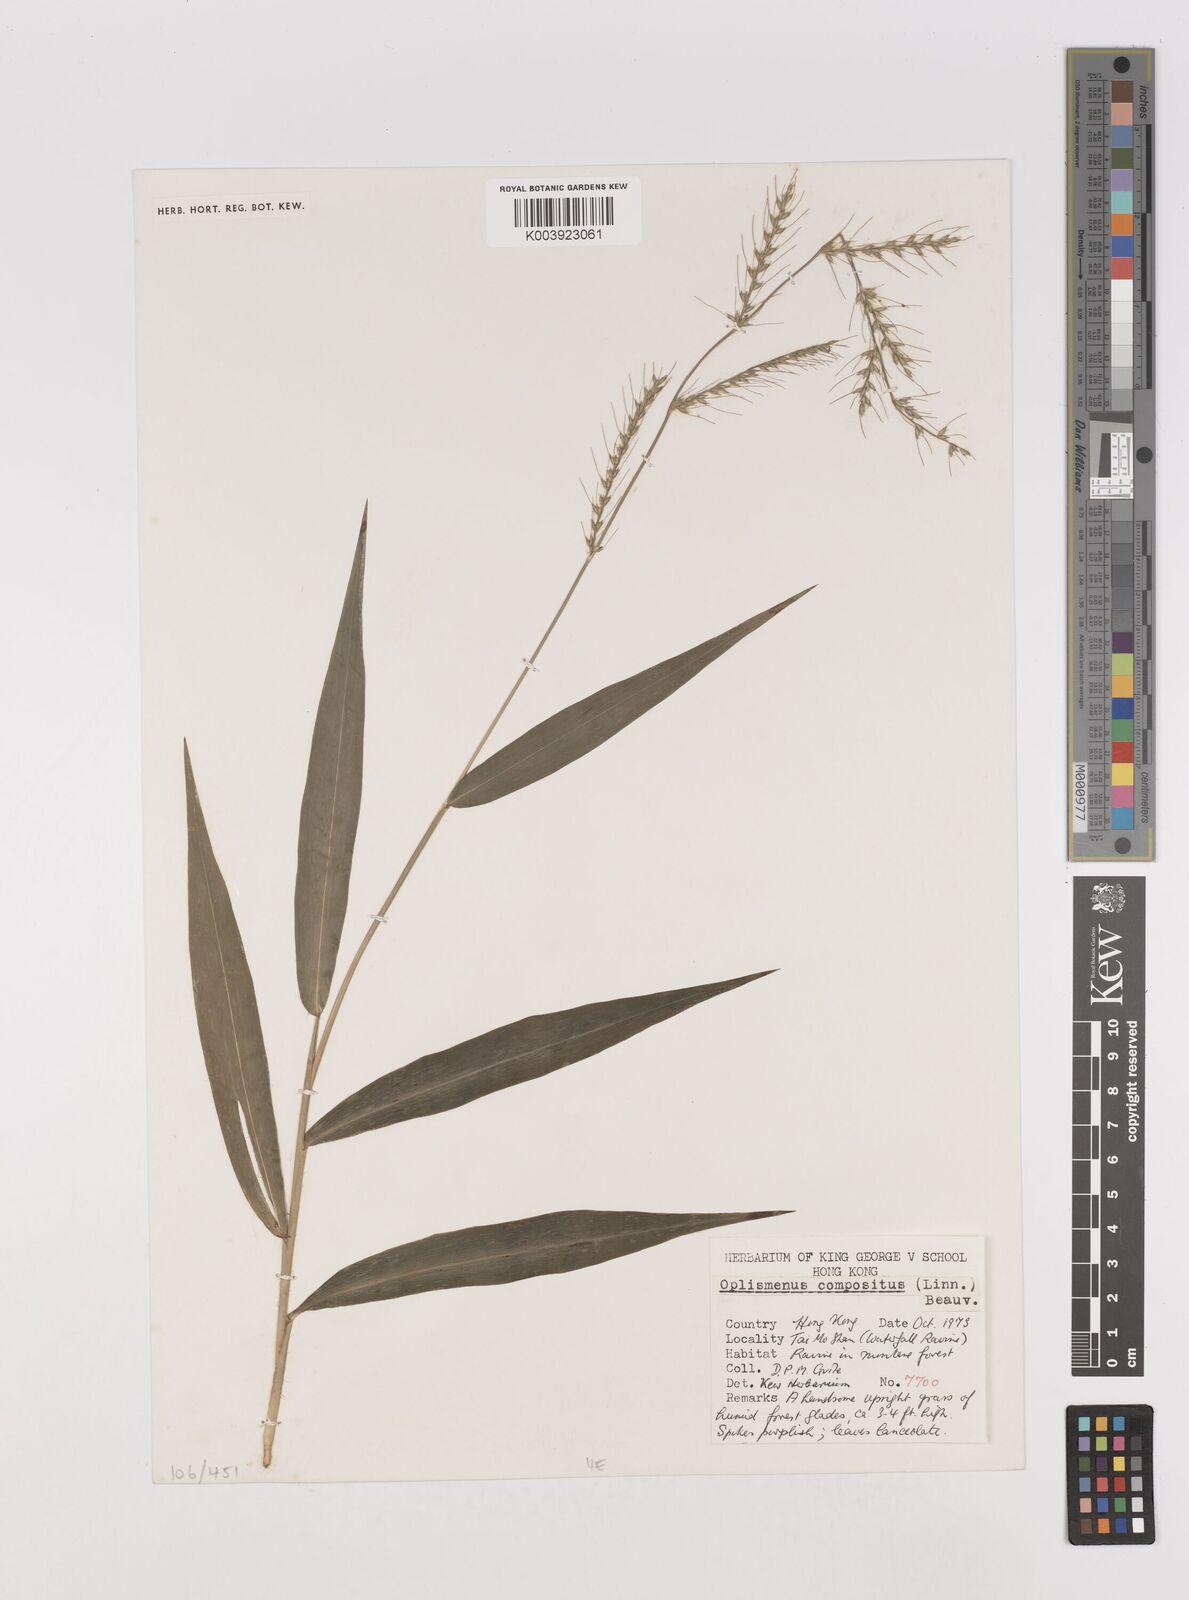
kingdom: Plantae
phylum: Tracheophyta
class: Liliopsida
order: Poales
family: Poaceae
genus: Oplismenus
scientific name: Oplismenus compositus
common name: Running mountain grass
